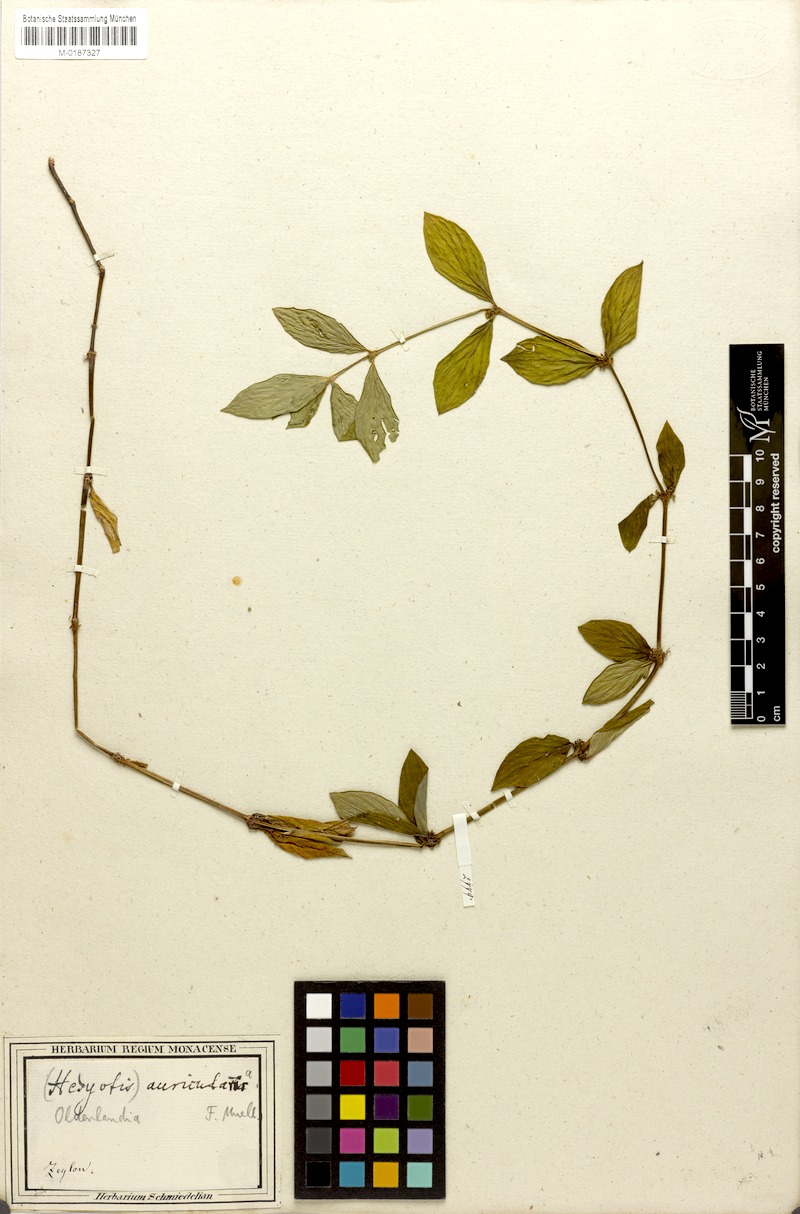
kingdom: Plantae
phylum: Tracheophyta
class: Magnoliopsida
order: Gentianales
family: Rubiaceae
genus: Exallage
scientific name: Exallage auricularia
